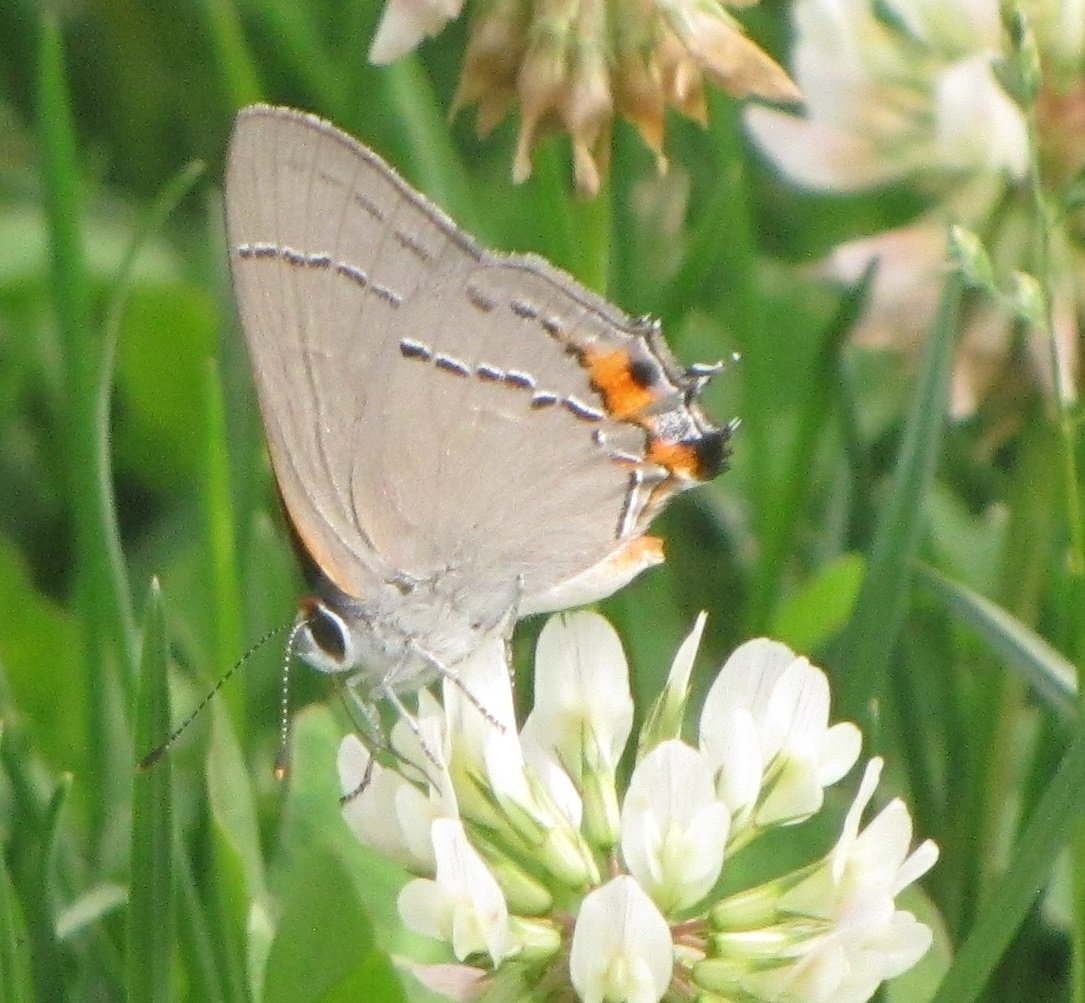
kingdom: Animalia
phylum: Arthropoda
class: Insecta
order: Lepidoptera
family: Lycaenidae
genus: Strymon
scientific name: Strymon melinus
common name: Gray Hairstreak
